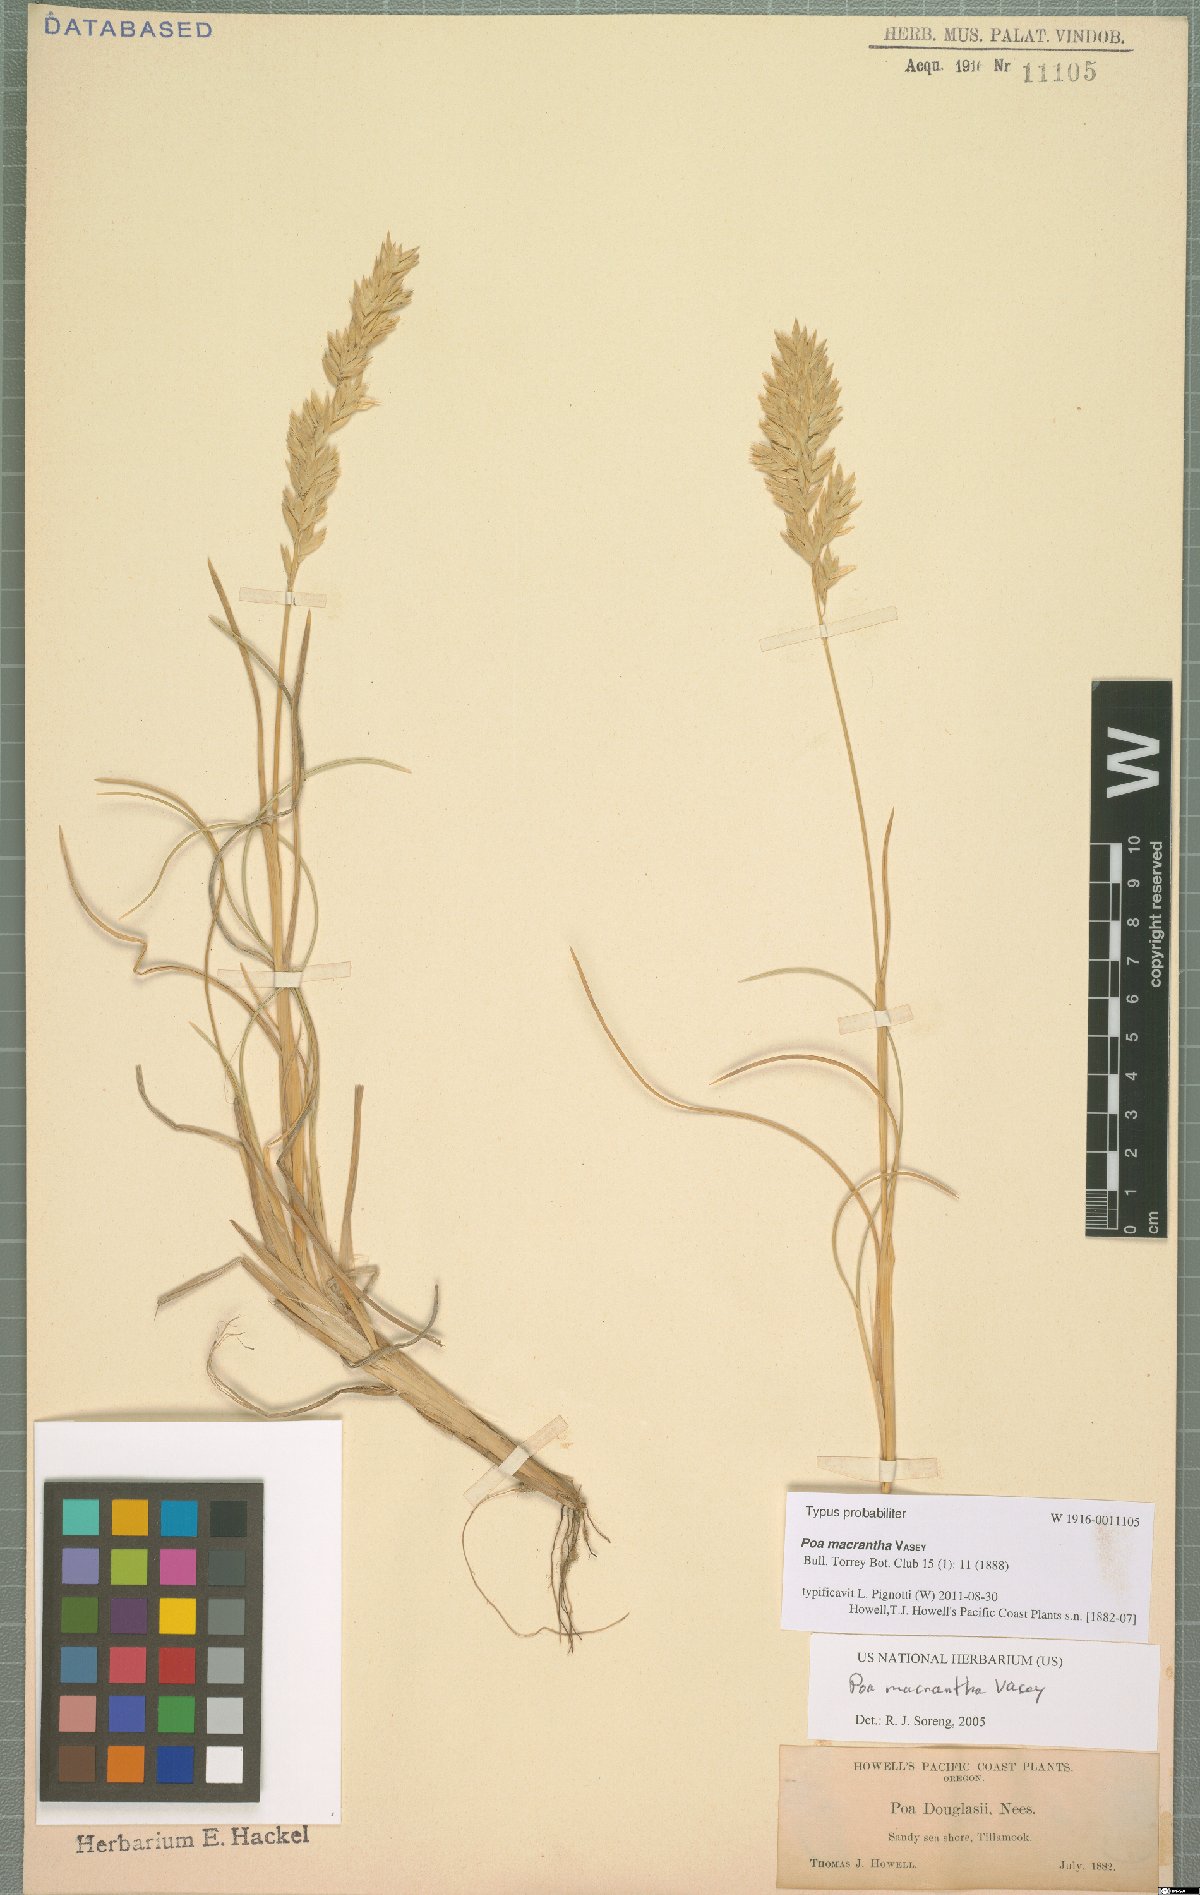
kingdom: Plantae
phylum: Tracheophyta
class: Liliopsida
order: Poales
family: Poaceae
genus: Poa
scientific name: Poa macrantha
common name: Dune bluegrass
